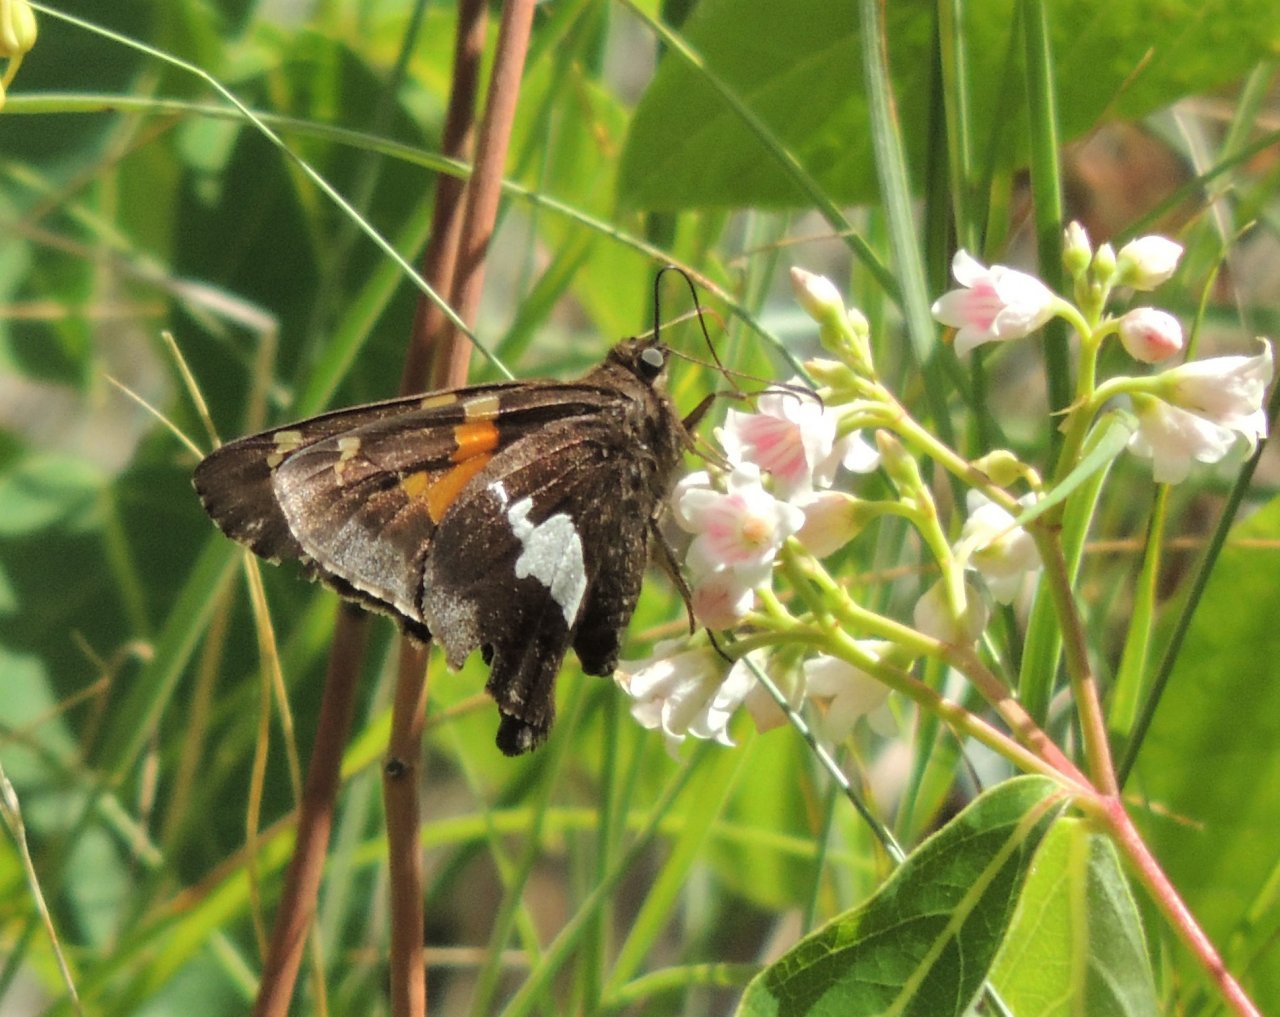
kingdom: Animalia
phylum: Arthropoda
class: Insecta
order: Lepidoptera
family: Hesperiidae
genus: Epargyreus
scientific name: Epargyreus clarus
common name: Silver-spotted Skipper
